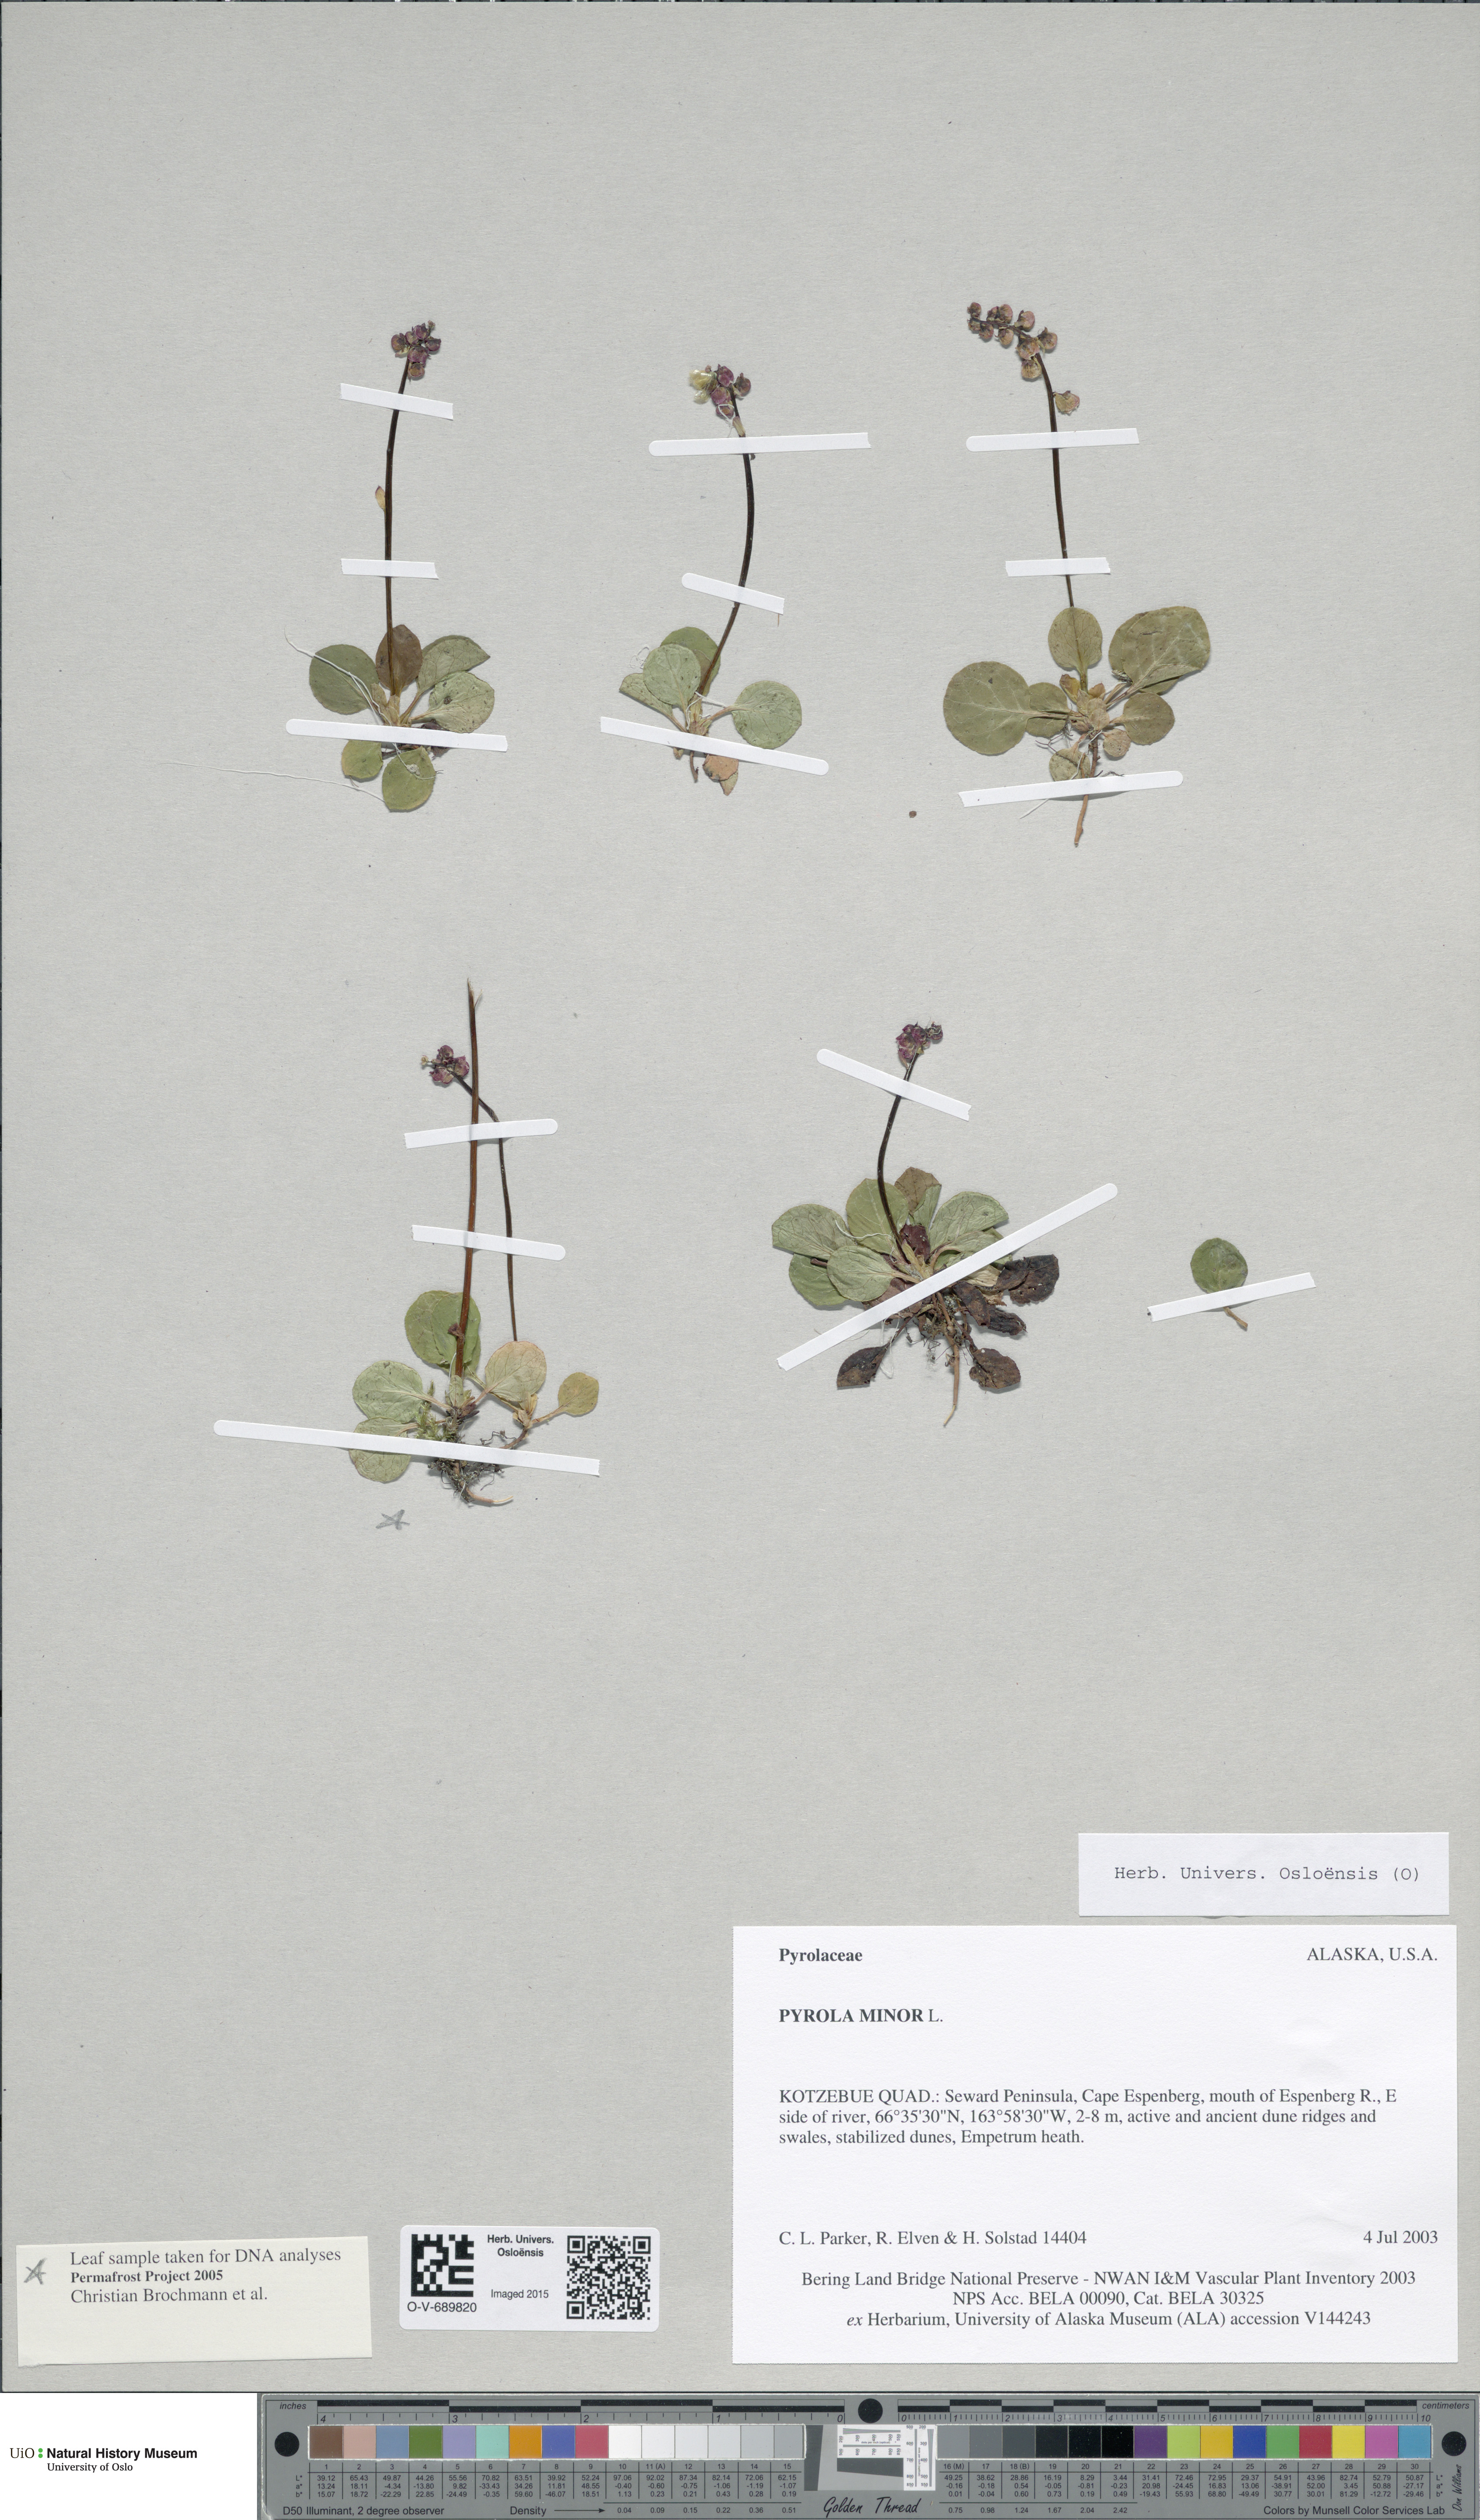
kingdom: Plantae
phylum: Tracheophyta
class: Magnoliopsida
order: Ericales
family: Ericaceae
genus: Pyrola
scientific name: Pyrola minor
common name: Common wintergreen
